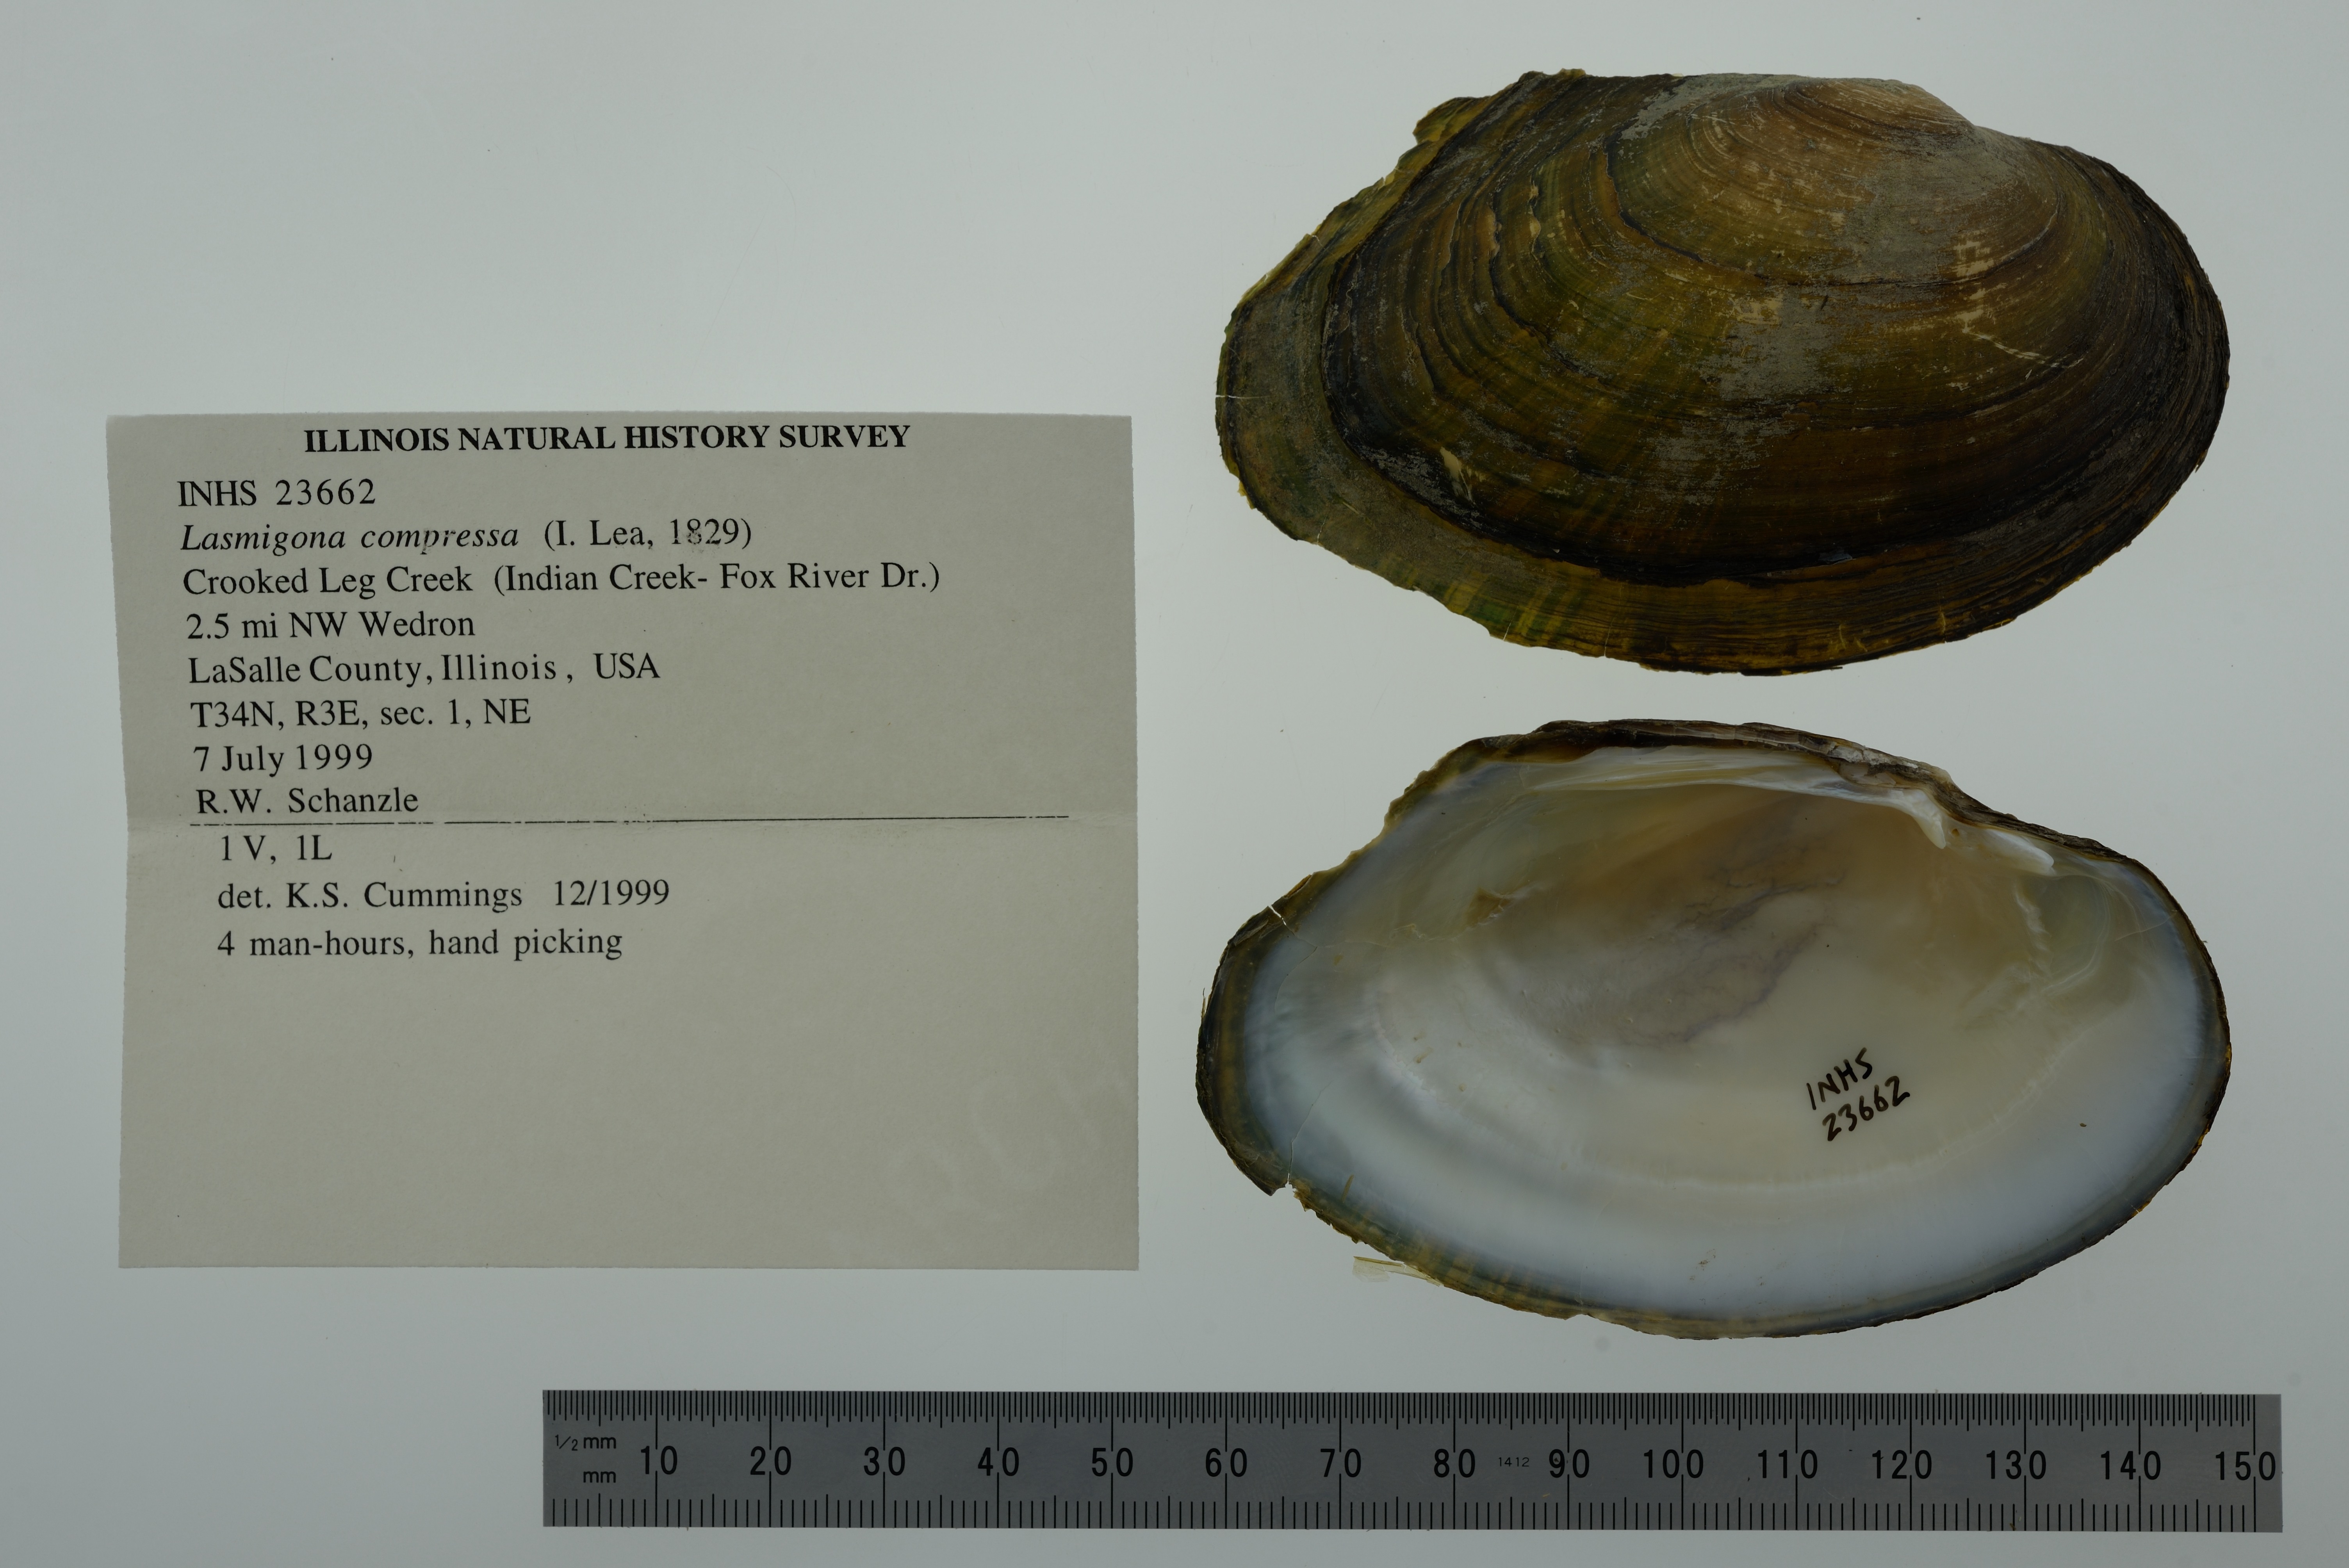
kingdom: Animalia
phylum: Mollusca
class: Bivalvia
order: Unionida
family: Unionidae
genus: Lasmigona
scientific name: Lasmigona compressa
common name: Creek heelsplitter
